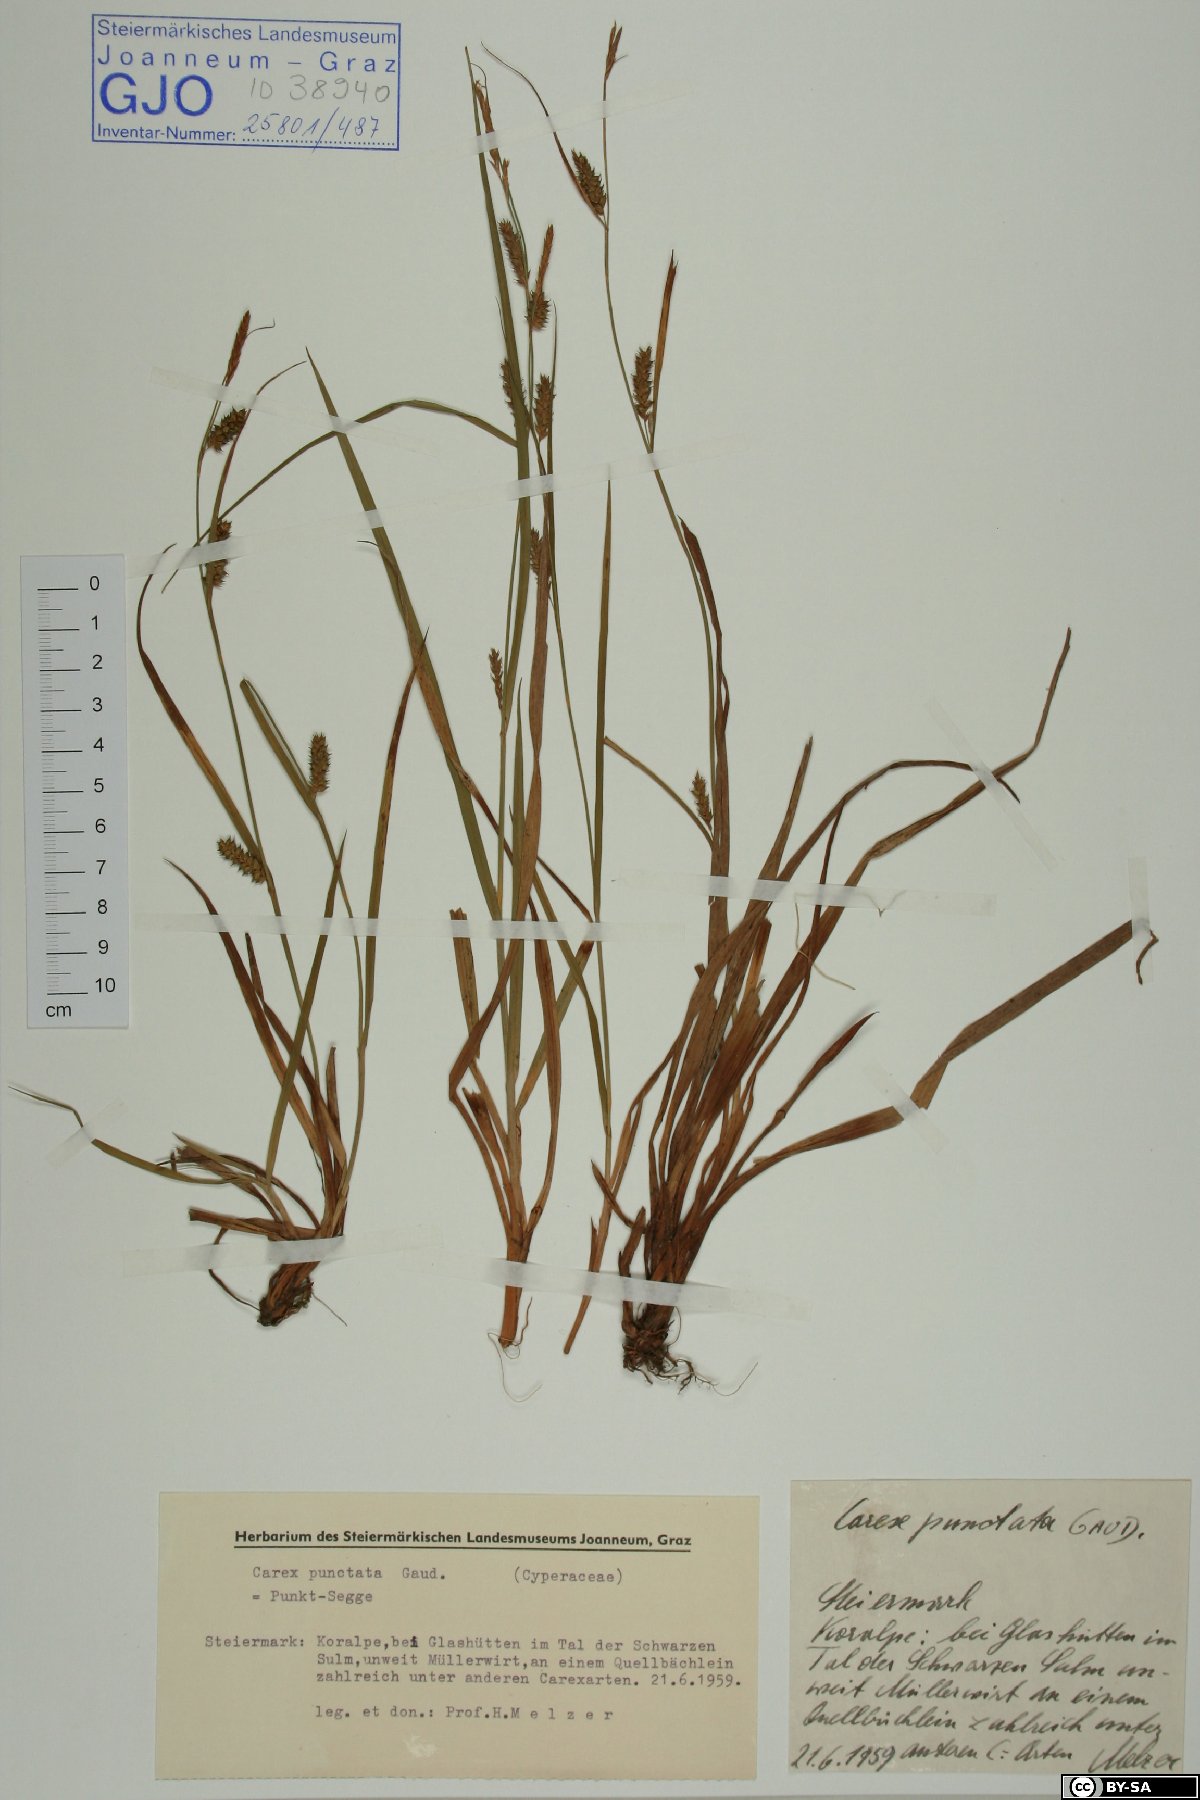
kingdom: Plantae
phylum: Tracheophyta
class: Liliopsida
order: Poales
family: Cyperaceae
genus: Carex
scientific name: Carex punctata
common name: Dotted sedge
